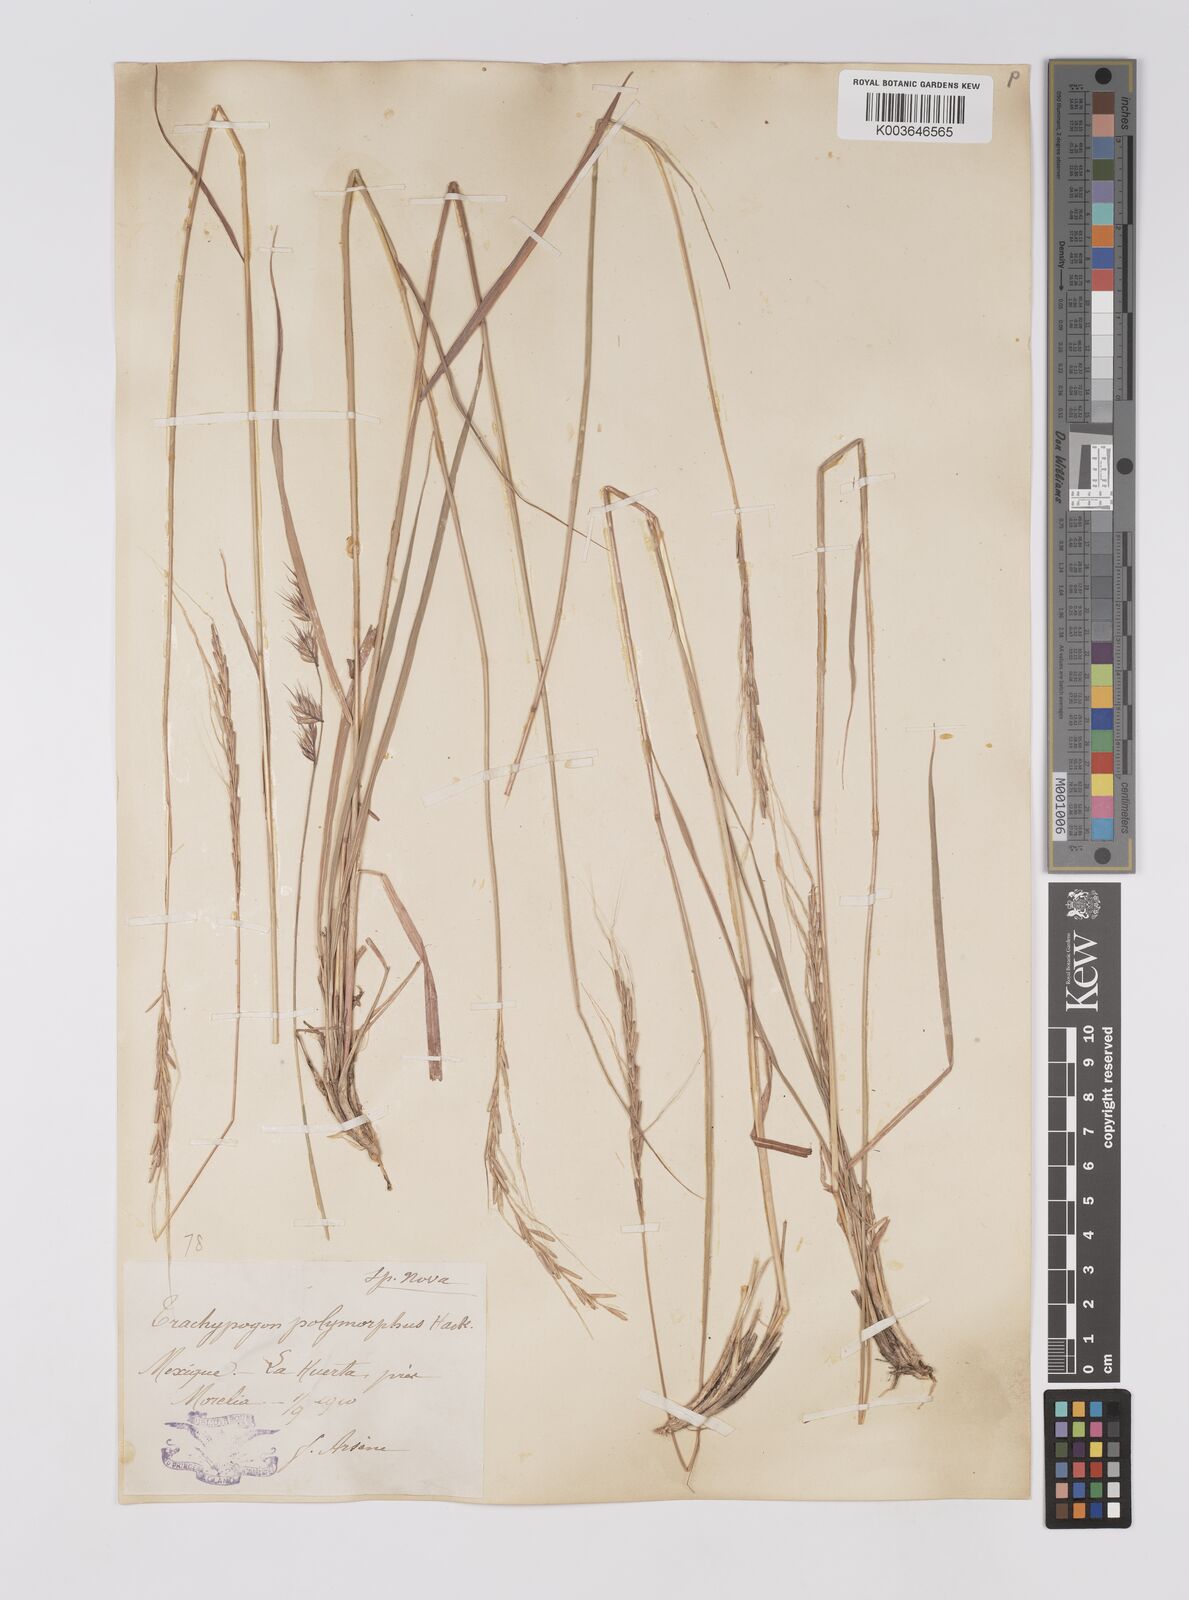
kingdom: Plantae
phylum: Tracheophyta
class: Liliopsida
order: Poales
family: Poaceae
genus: Trachypogon
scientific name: Trachypogon spicatus
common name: Crinkle-awn
